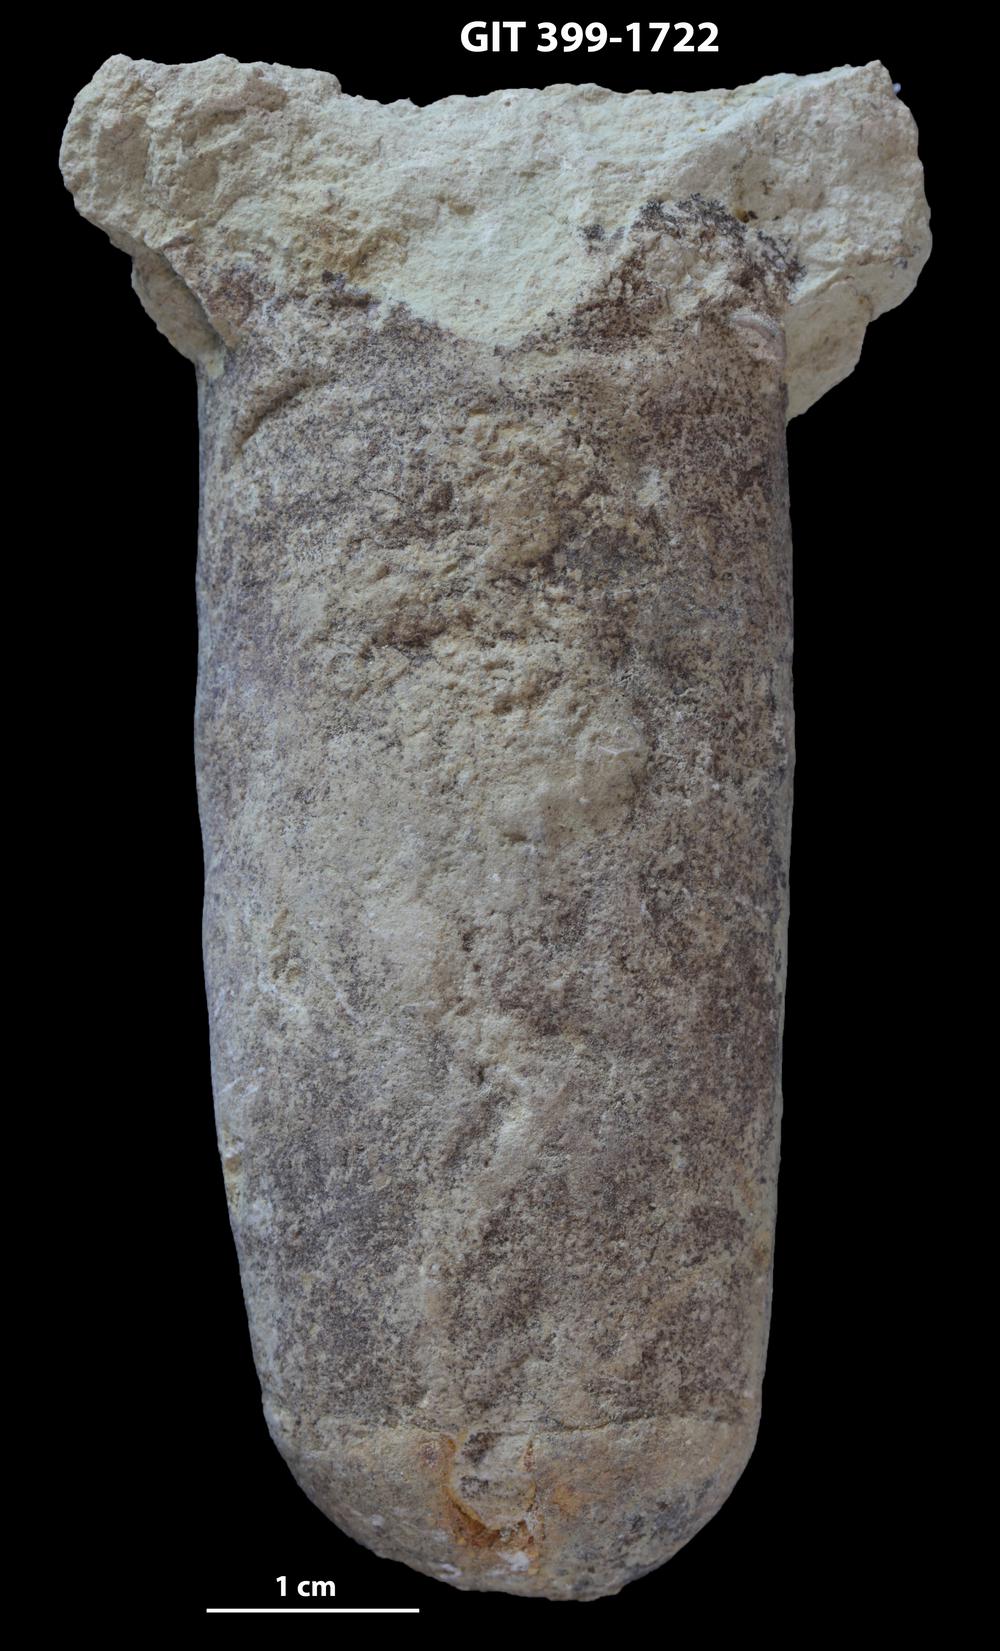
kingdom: Animalia
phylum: Mollusca
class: Cephalopoda
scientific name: Cephalopoda
